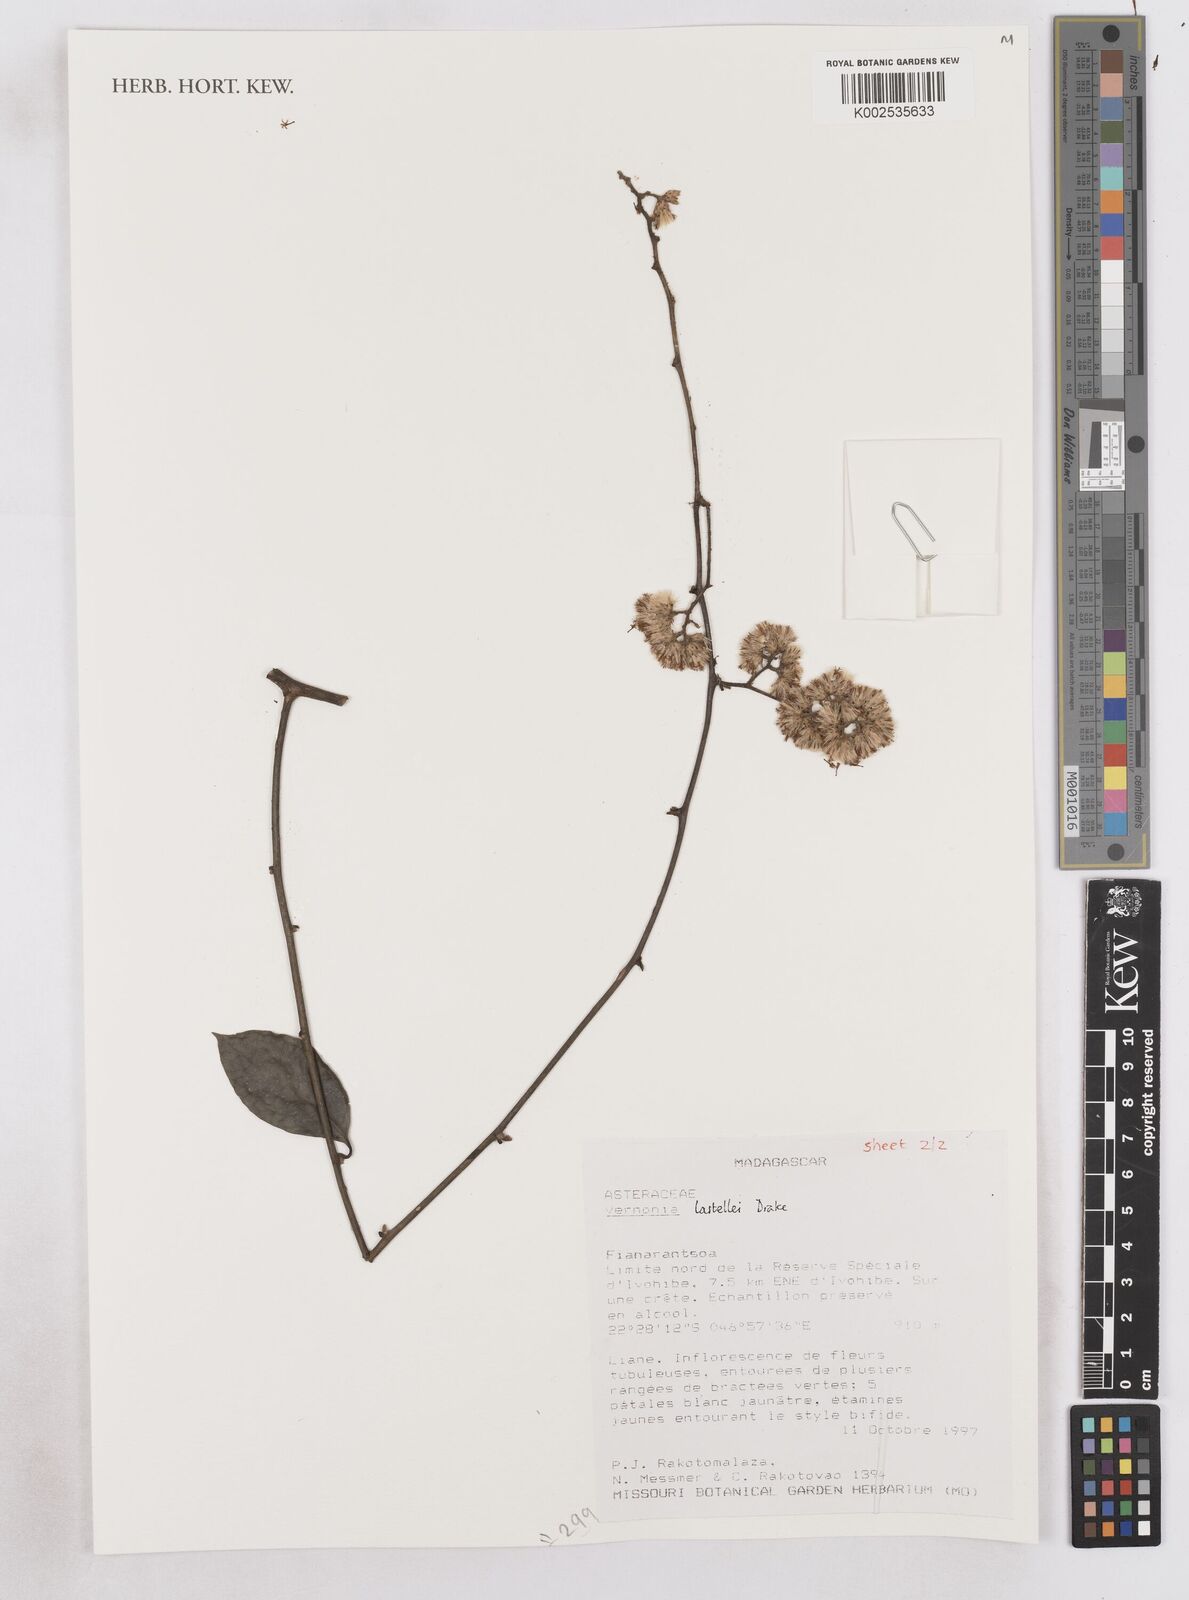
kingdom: Plantae
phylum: Tracheophyta
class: Magnoliopsida
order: Asterales
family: Asteraceae
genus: Distephanus
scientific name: Distephanus lastellei
